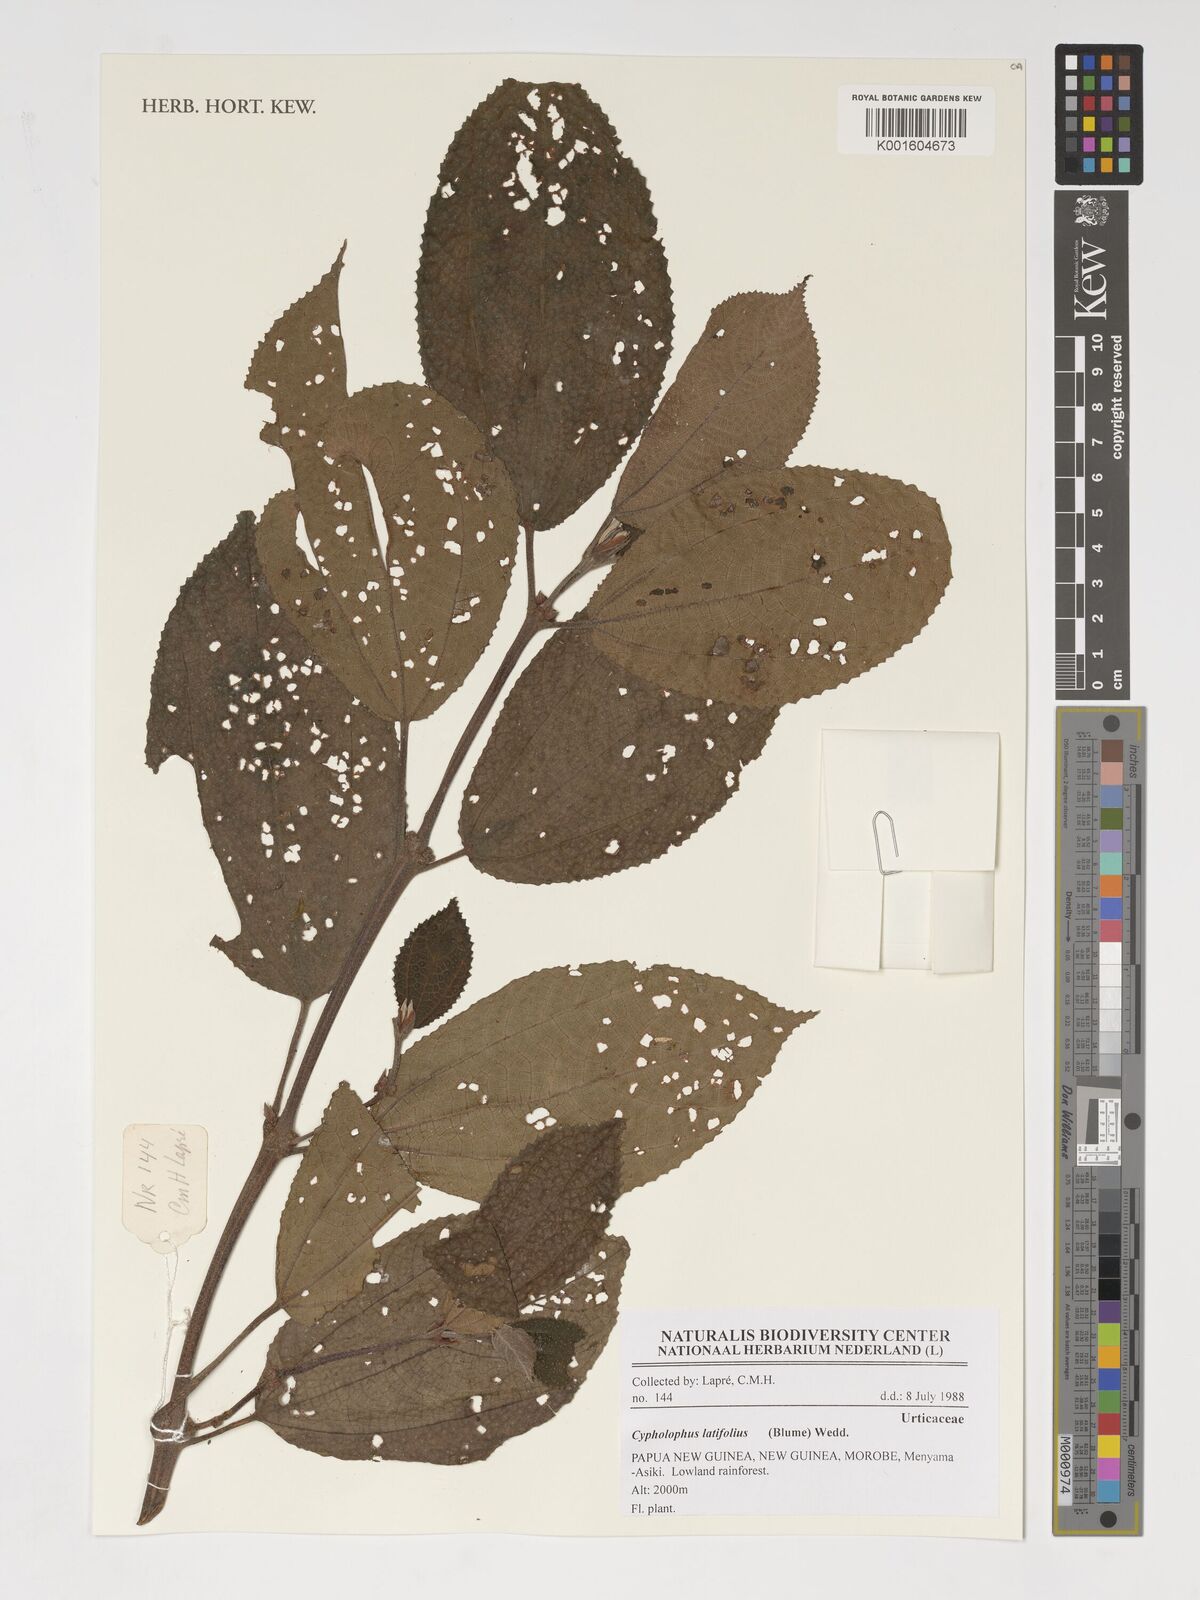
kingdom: Plantae
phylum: Tracheophyta
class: Magnoliopsida
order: Rosales
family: Urticaceae
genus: Cypholophus
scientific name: Cypholophus latifolius
